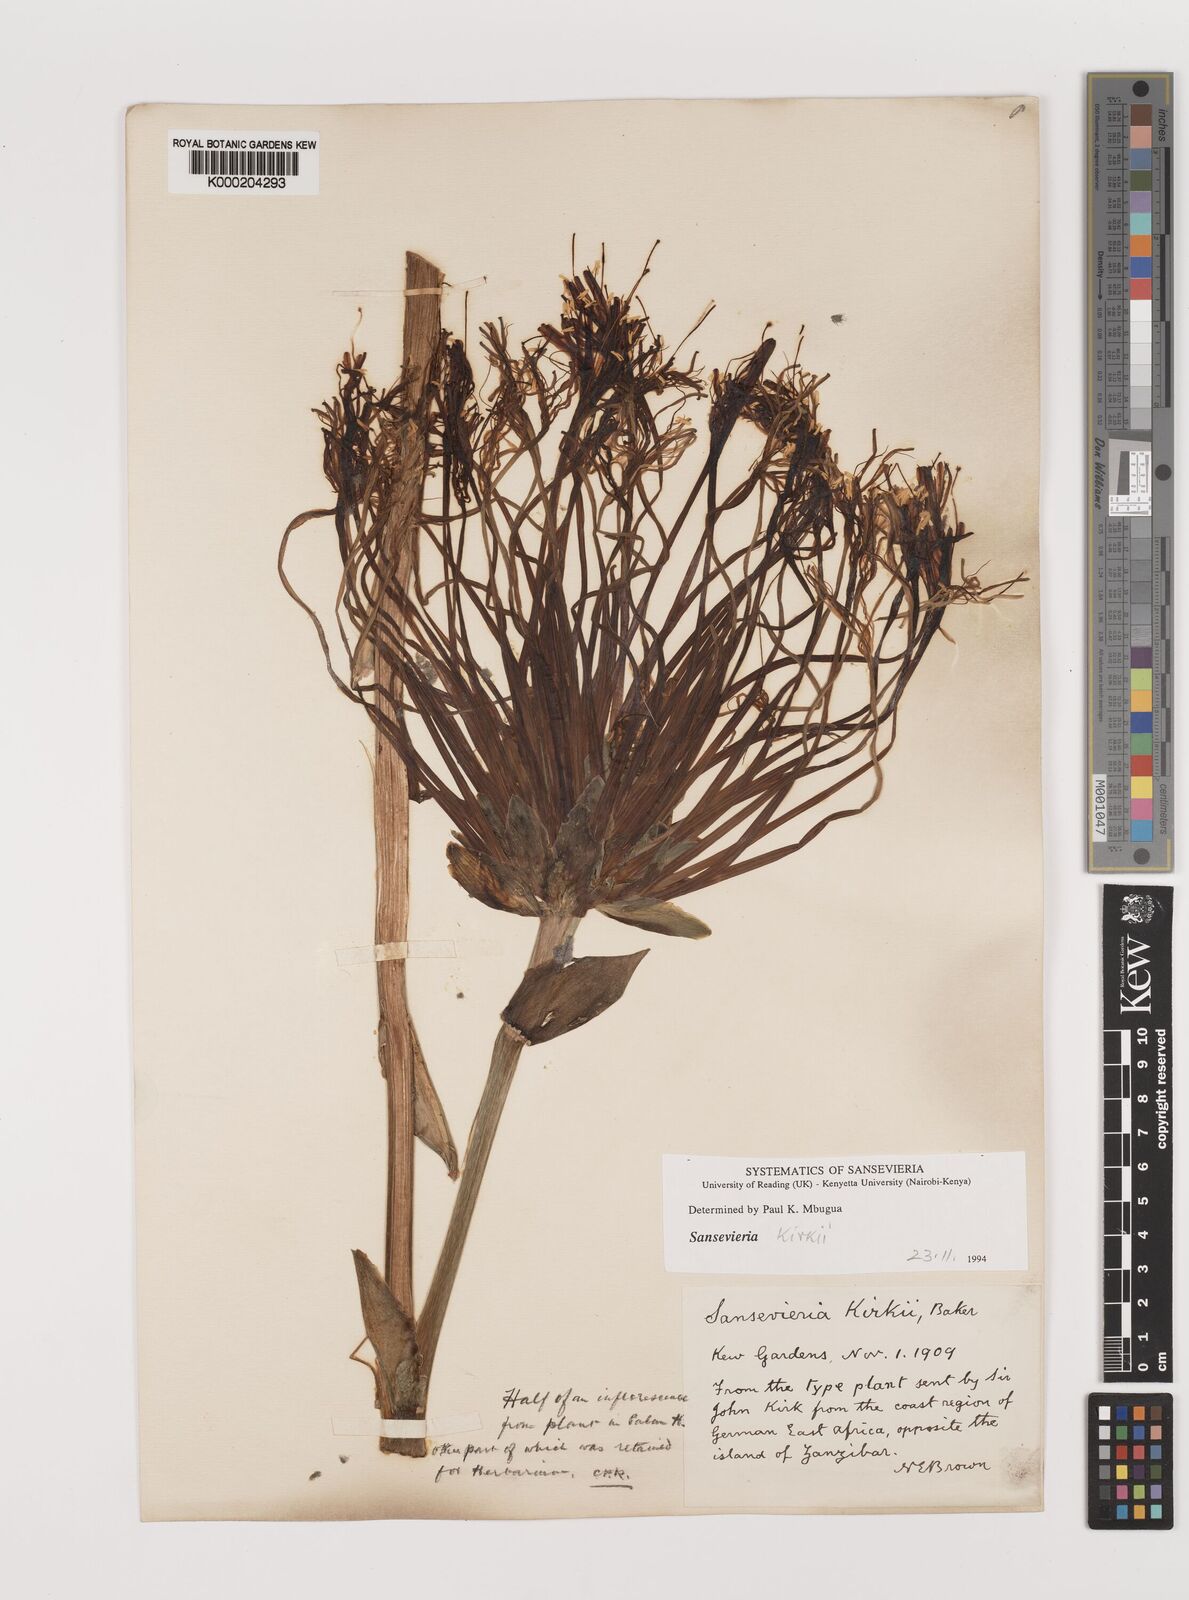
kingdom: Plantae
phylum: Tracheophyta
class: Liliopsida
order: Asparagales
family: Asparagaceae
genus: Dracaena
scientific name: Dracaena pethera
